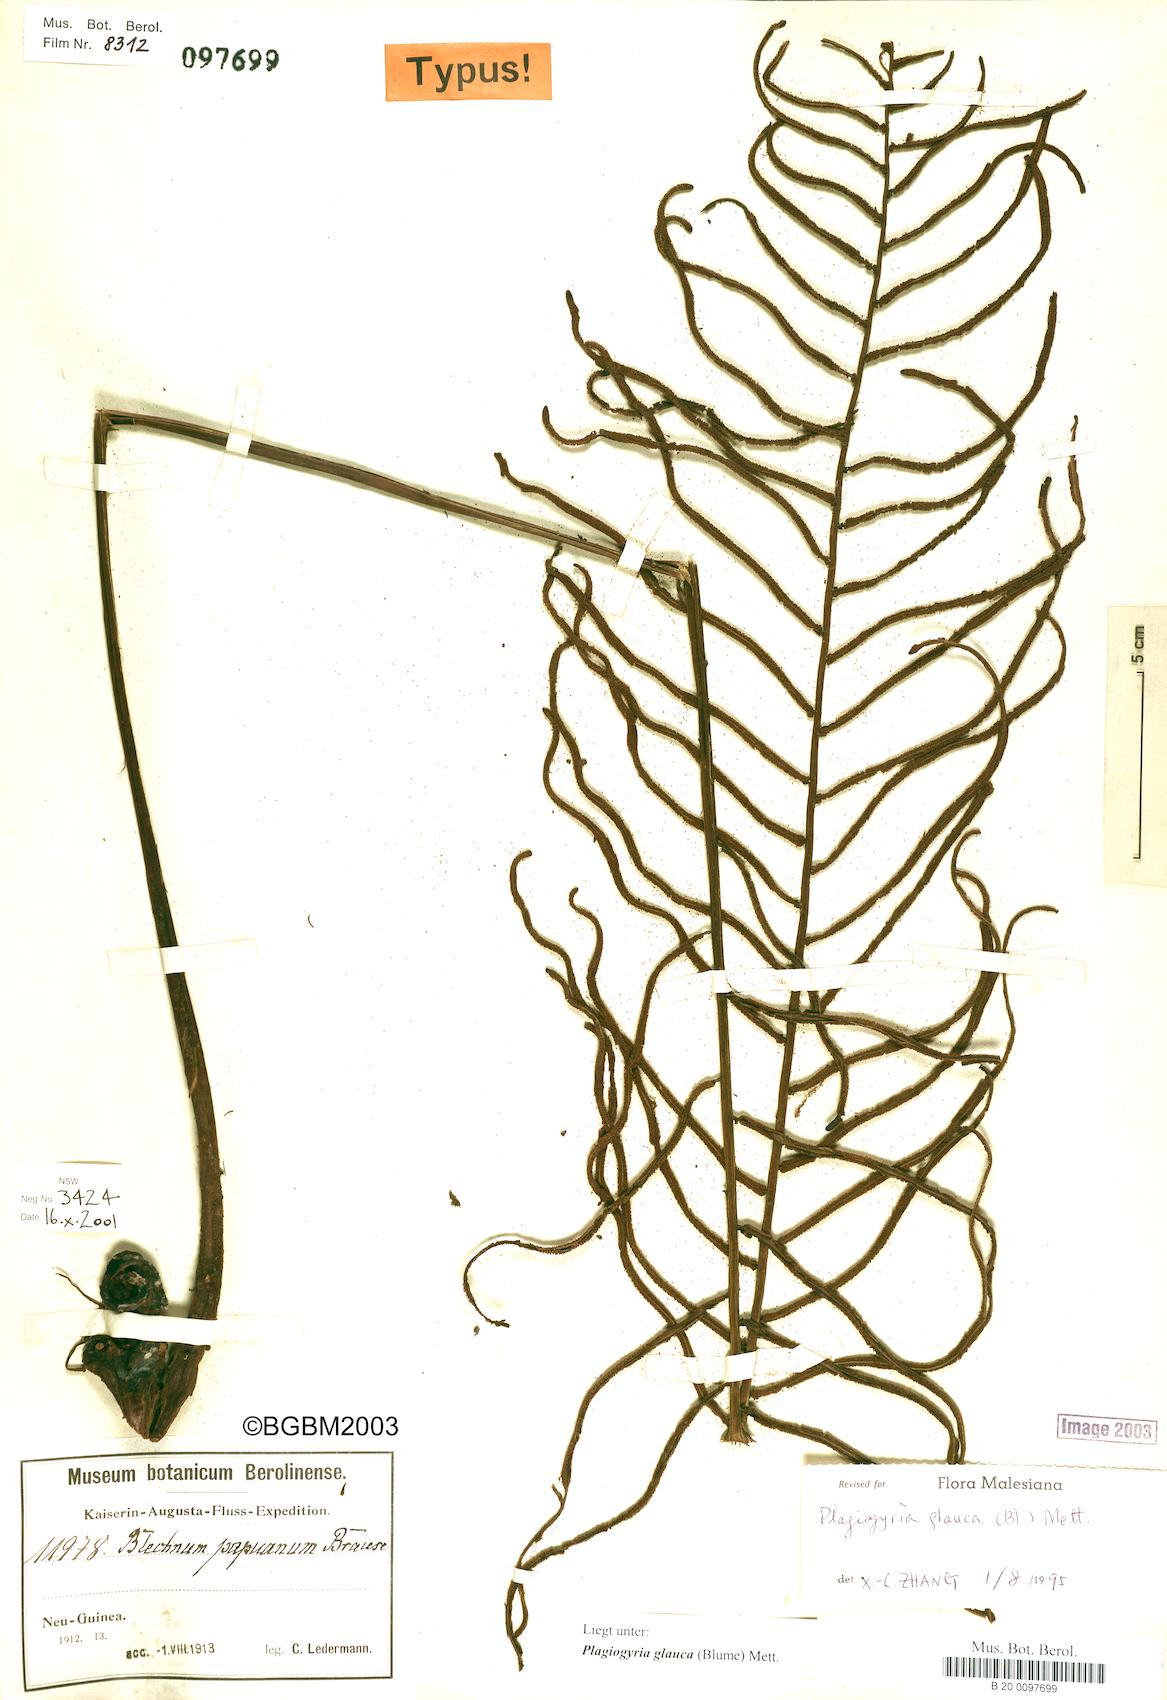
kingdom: Plantae
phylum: Tracheophyta
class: Polypodiopsida
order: Cyatheales
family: Plagiogyriaceae
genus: Plagiogyria
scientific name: Plagiogyria glauca
